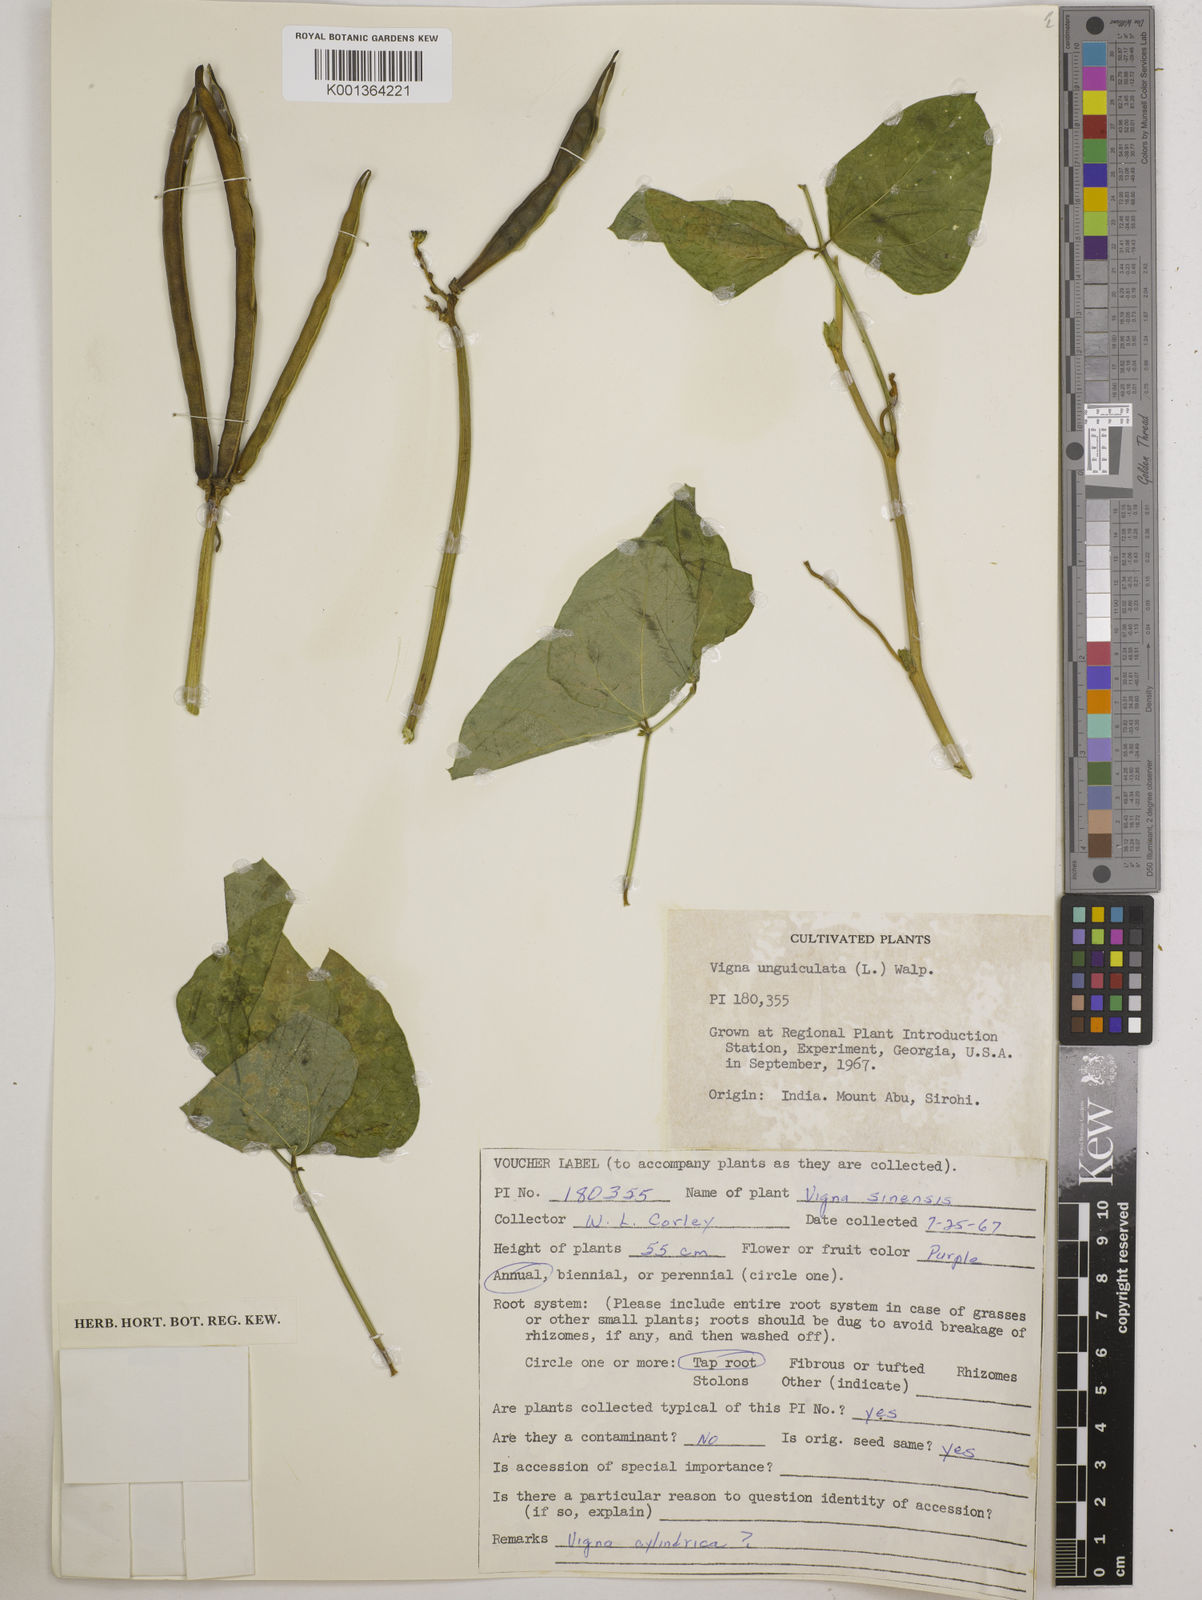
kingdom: Plantae
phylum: Tracheophyta
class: Magnoliopsida
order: Fabales
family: Fabaceae
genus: Vigna
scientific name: Vigna
